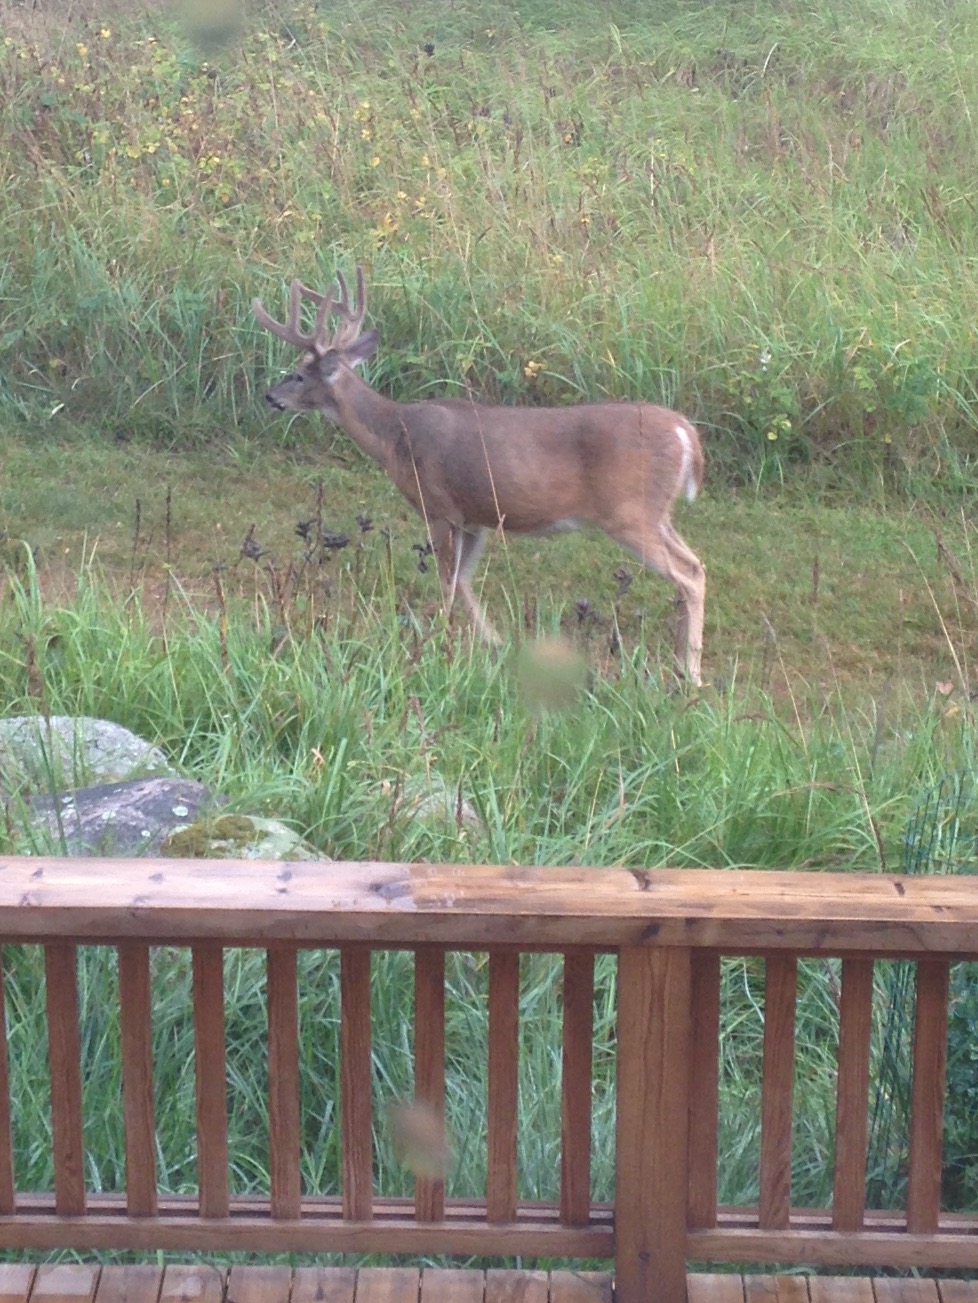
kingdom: Animalia
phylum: Chordata
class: Mammalia
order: Artiodactyla
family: Cervidae
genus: Odocoileus
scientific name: Odocoileus virginianus
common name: White-tailed deer
